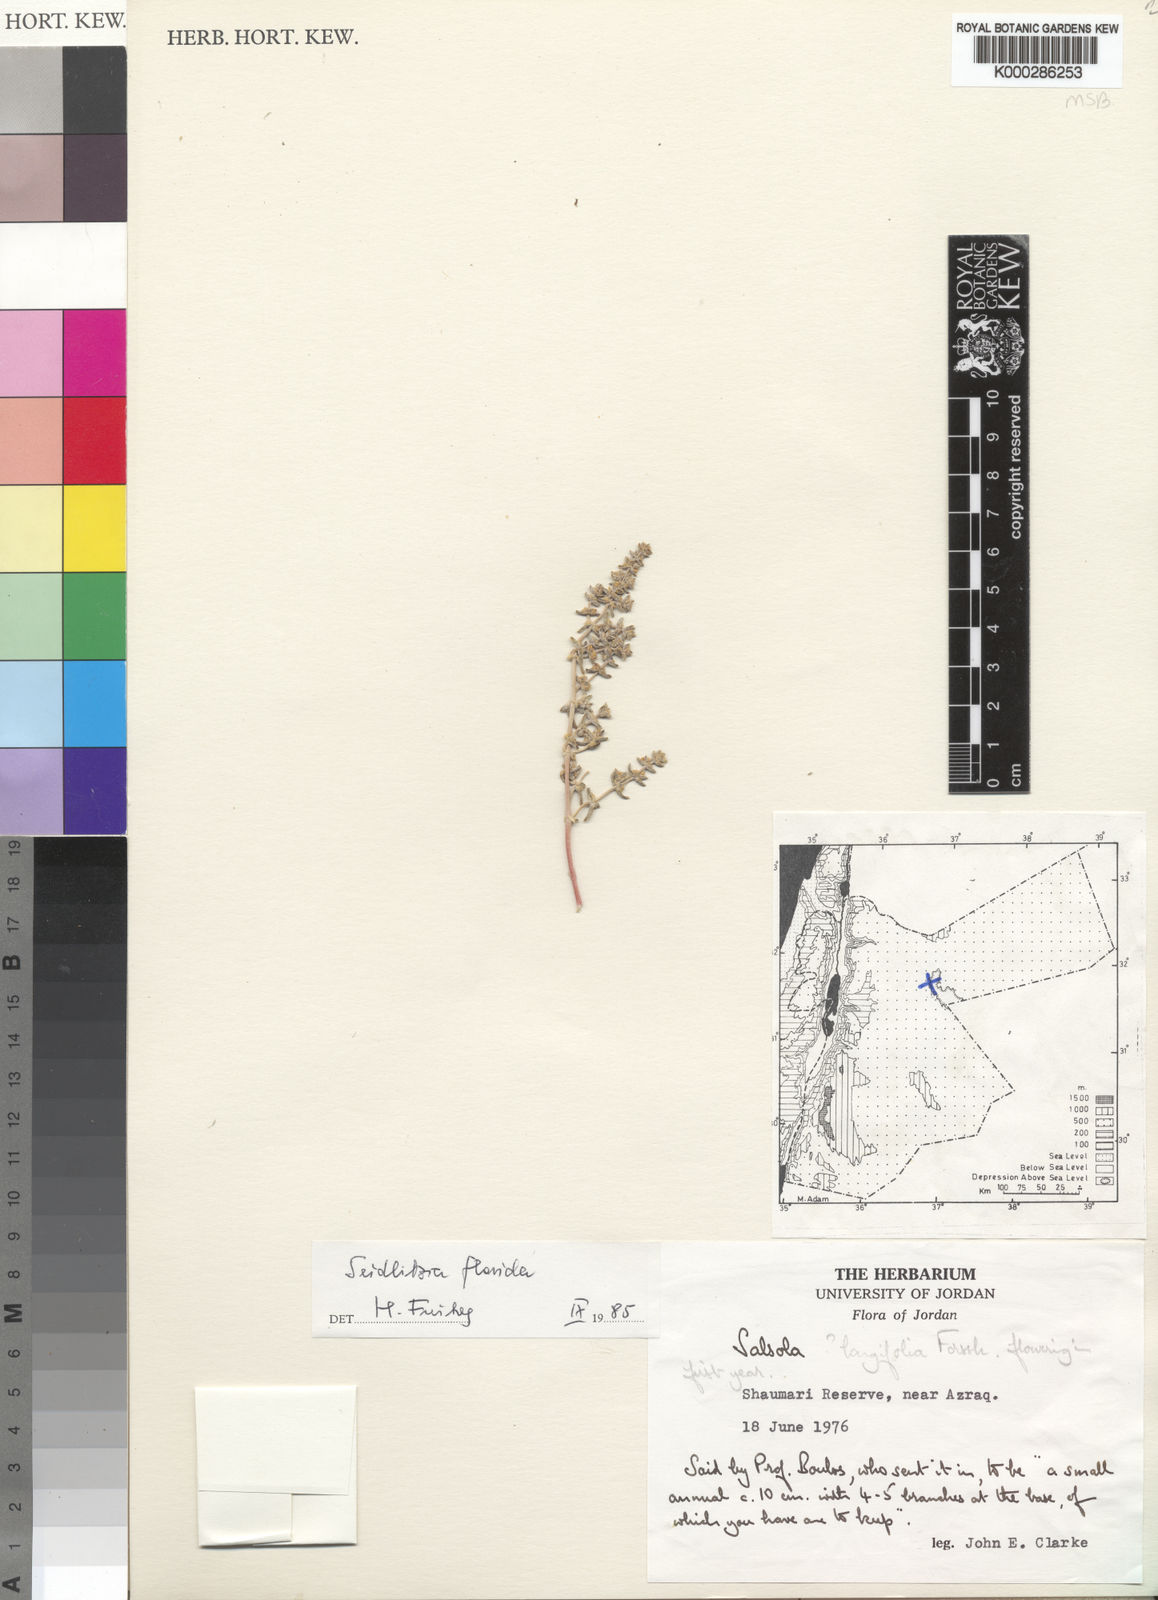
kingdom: Plantae
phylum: Tracheophyta
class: Magnoliopsida
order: Caryophyllales
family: Amaranthaceae
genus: Soda
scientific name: Soda florida
